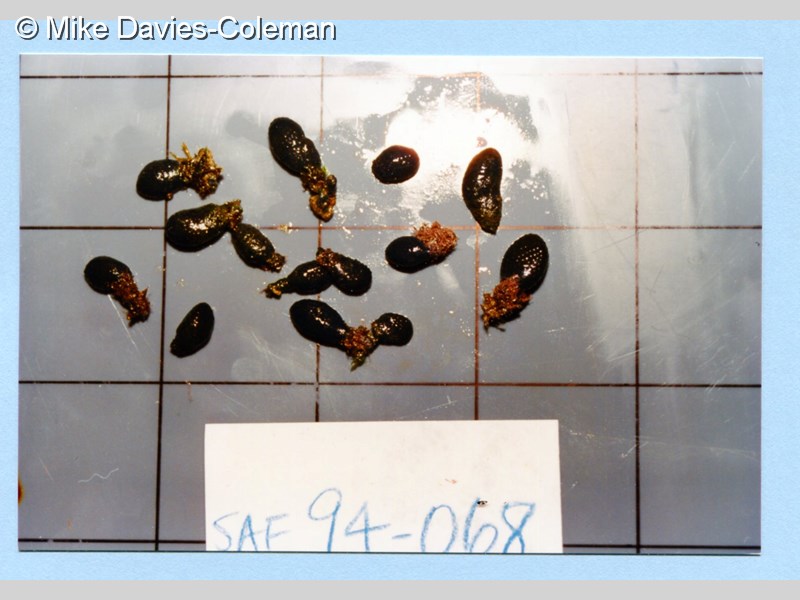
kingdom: Animalia
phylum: Chordata
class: Ascidiacea
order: Aplousobranchia
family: Polyclinidae
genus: Aplidiopsis
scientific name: Aplidiopsis tubiferus
